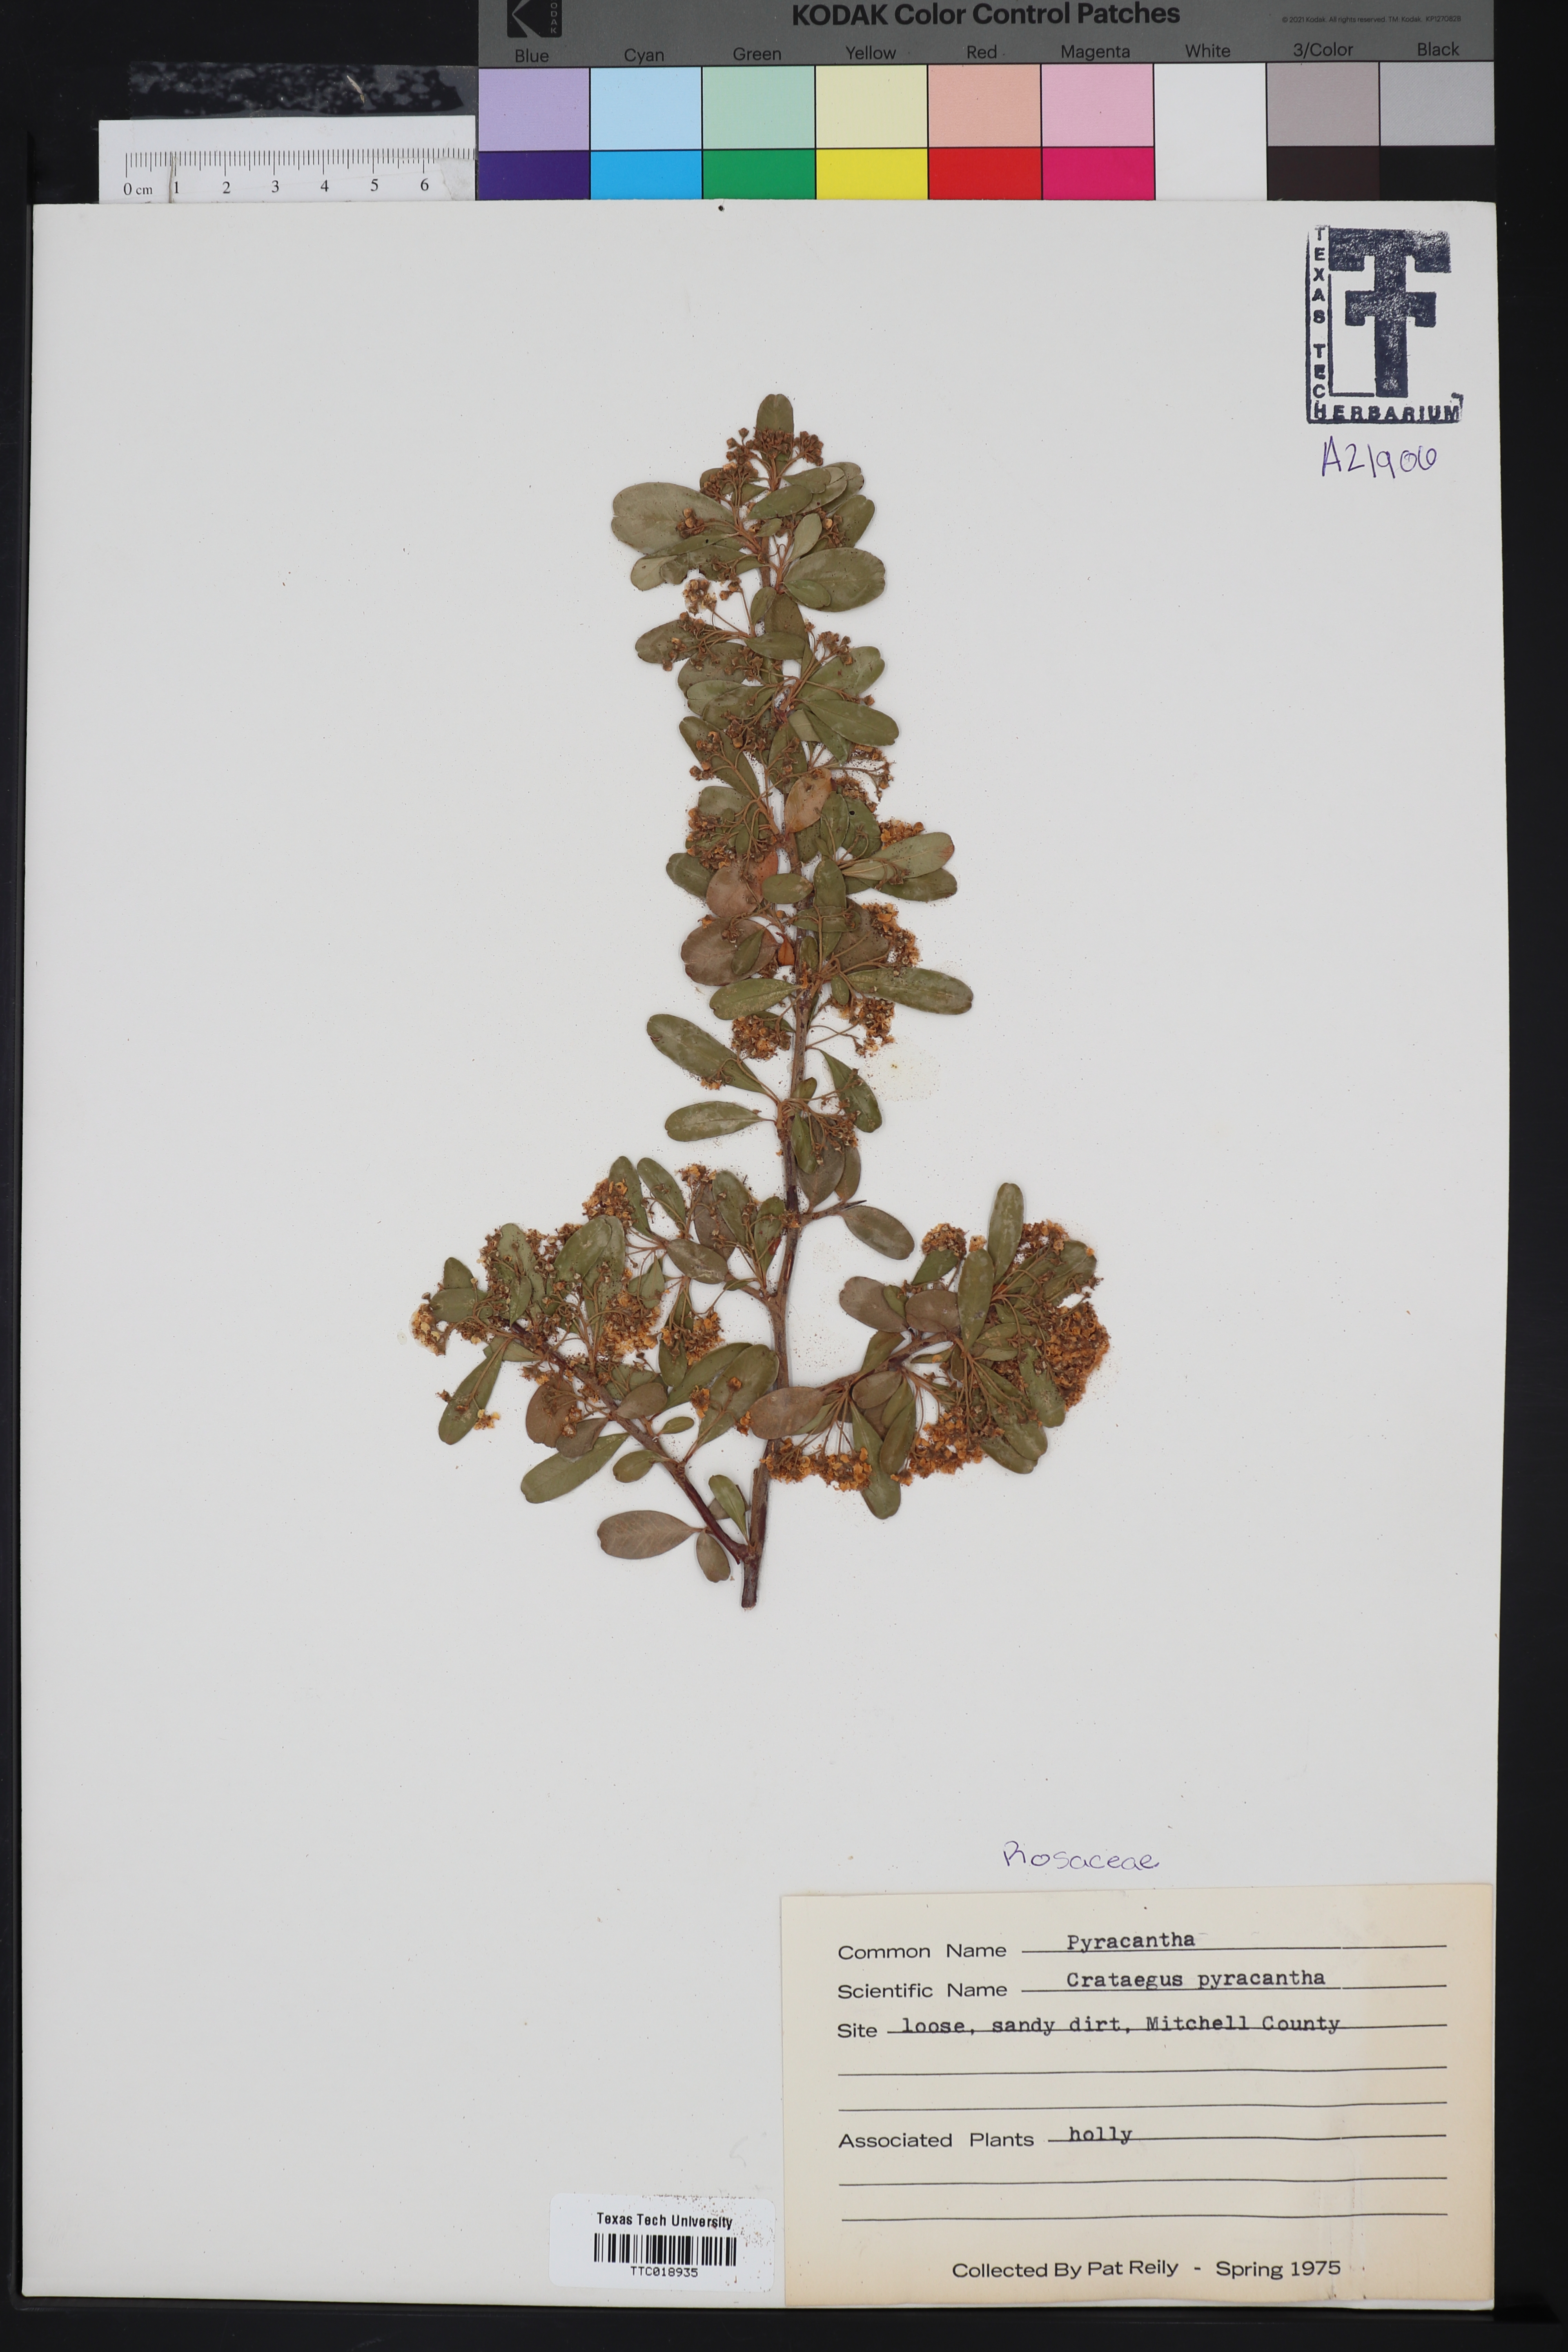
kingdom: Plantae
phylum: Tracheophyta
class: Magnoliopsida
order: Rosales
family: Rosaceae
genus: Pyracantha
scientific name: Pyracantha
